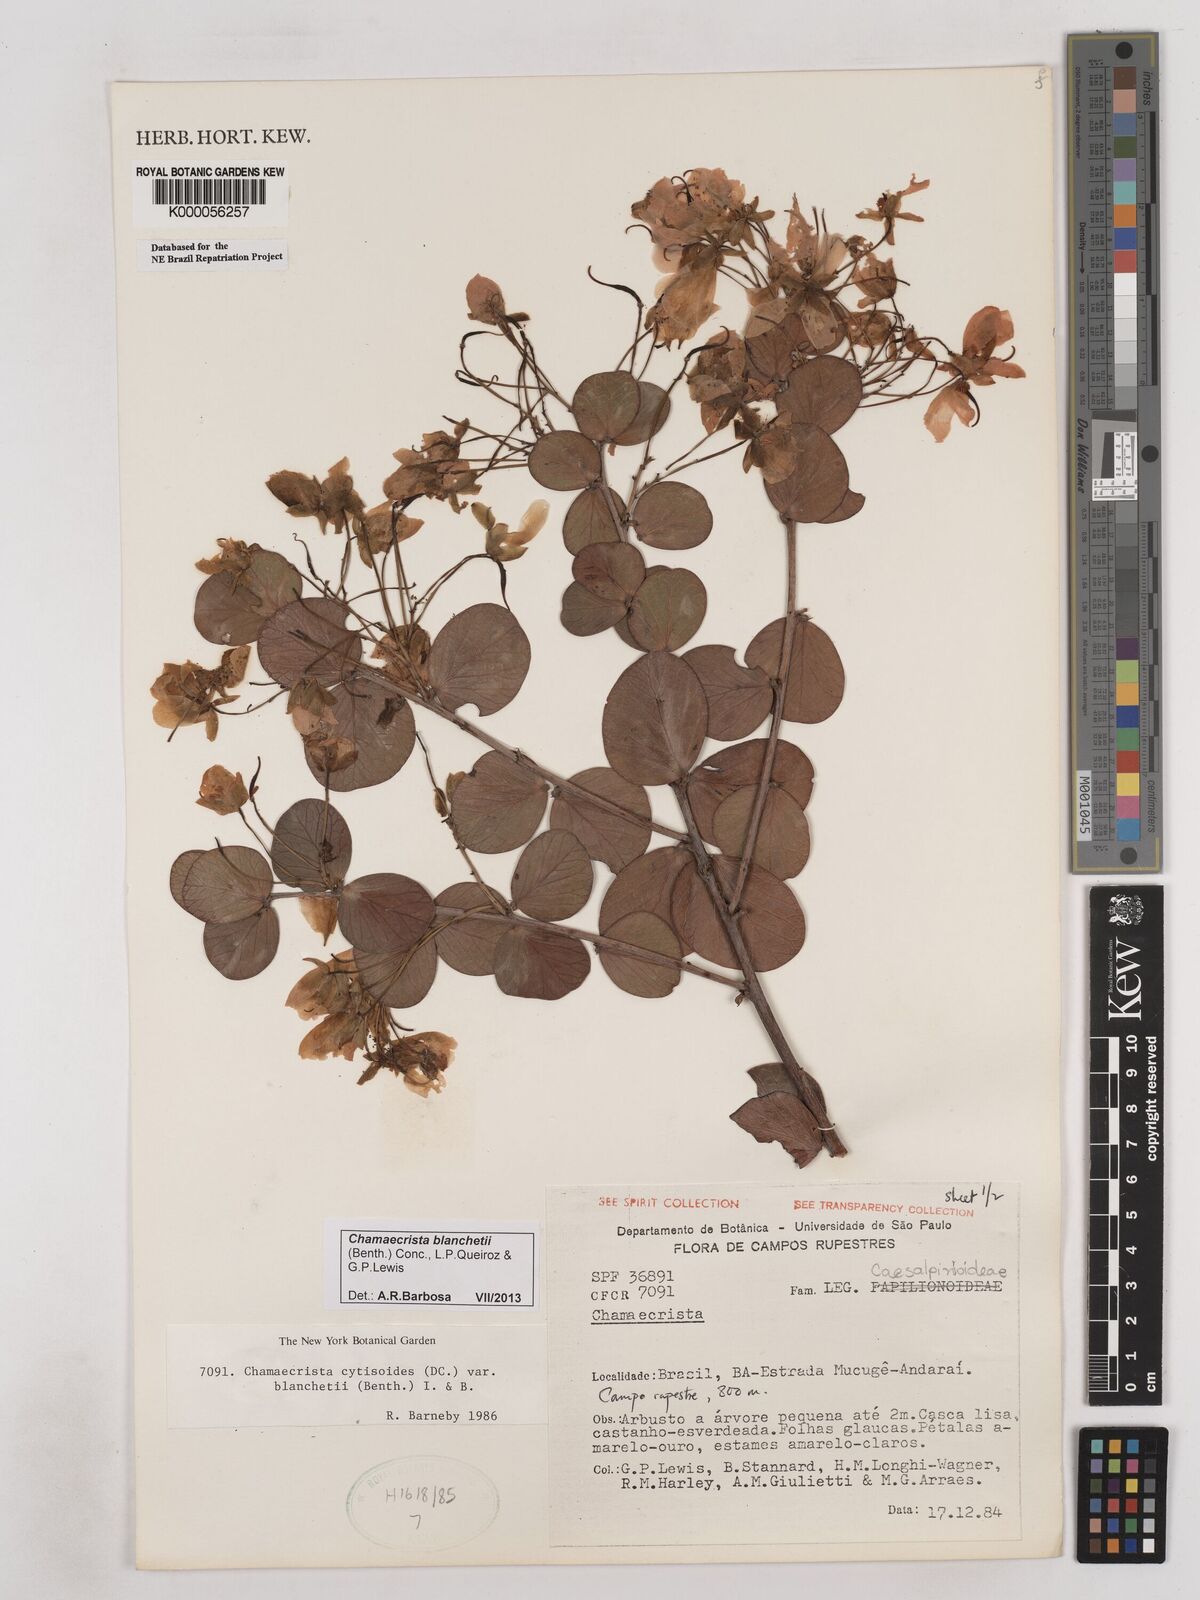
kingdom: Plantae
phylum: Tracheophyta
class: Magnoliopsida
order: Fabales
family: Fabaceae
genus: Chamaecrista
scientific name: Chamaecrista cytisoides
